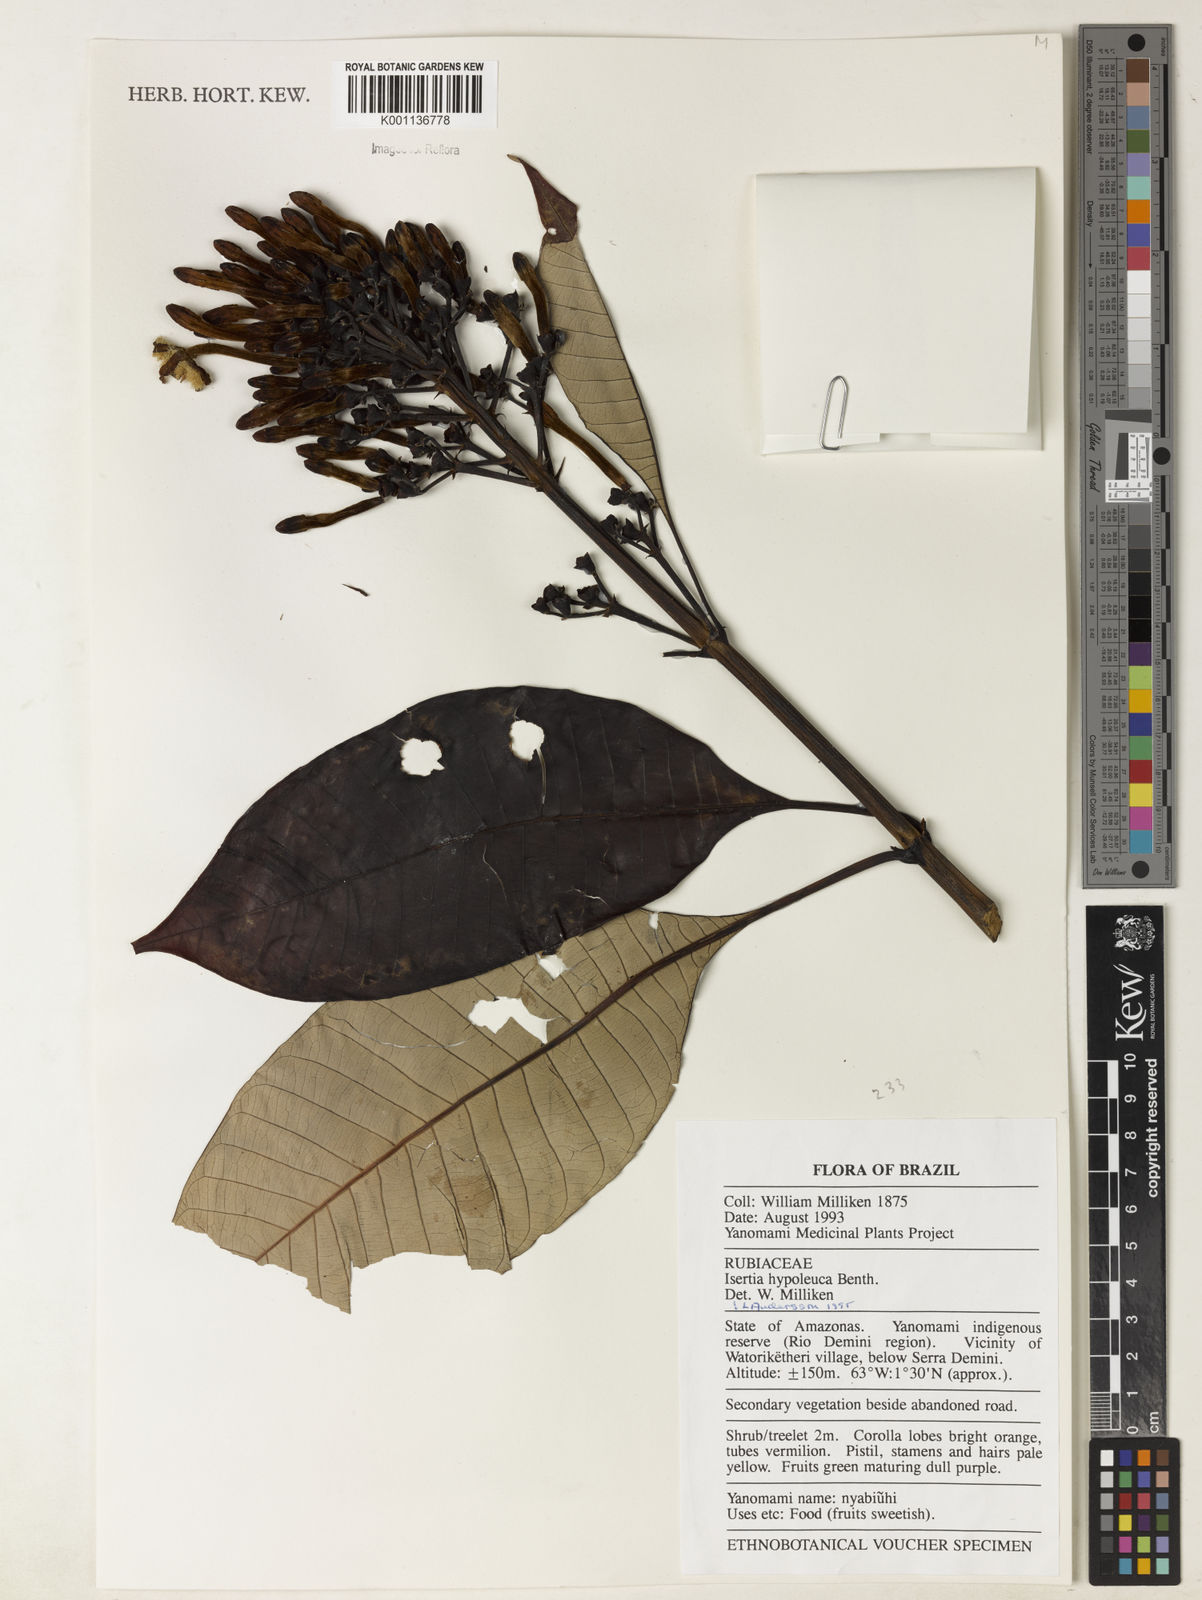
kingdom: Plantae
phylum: Tracheophyta
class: Magnoliopsida
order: Gentianales
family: Rubiaceae
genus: Isertia
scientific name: Isertia hypoleuca
